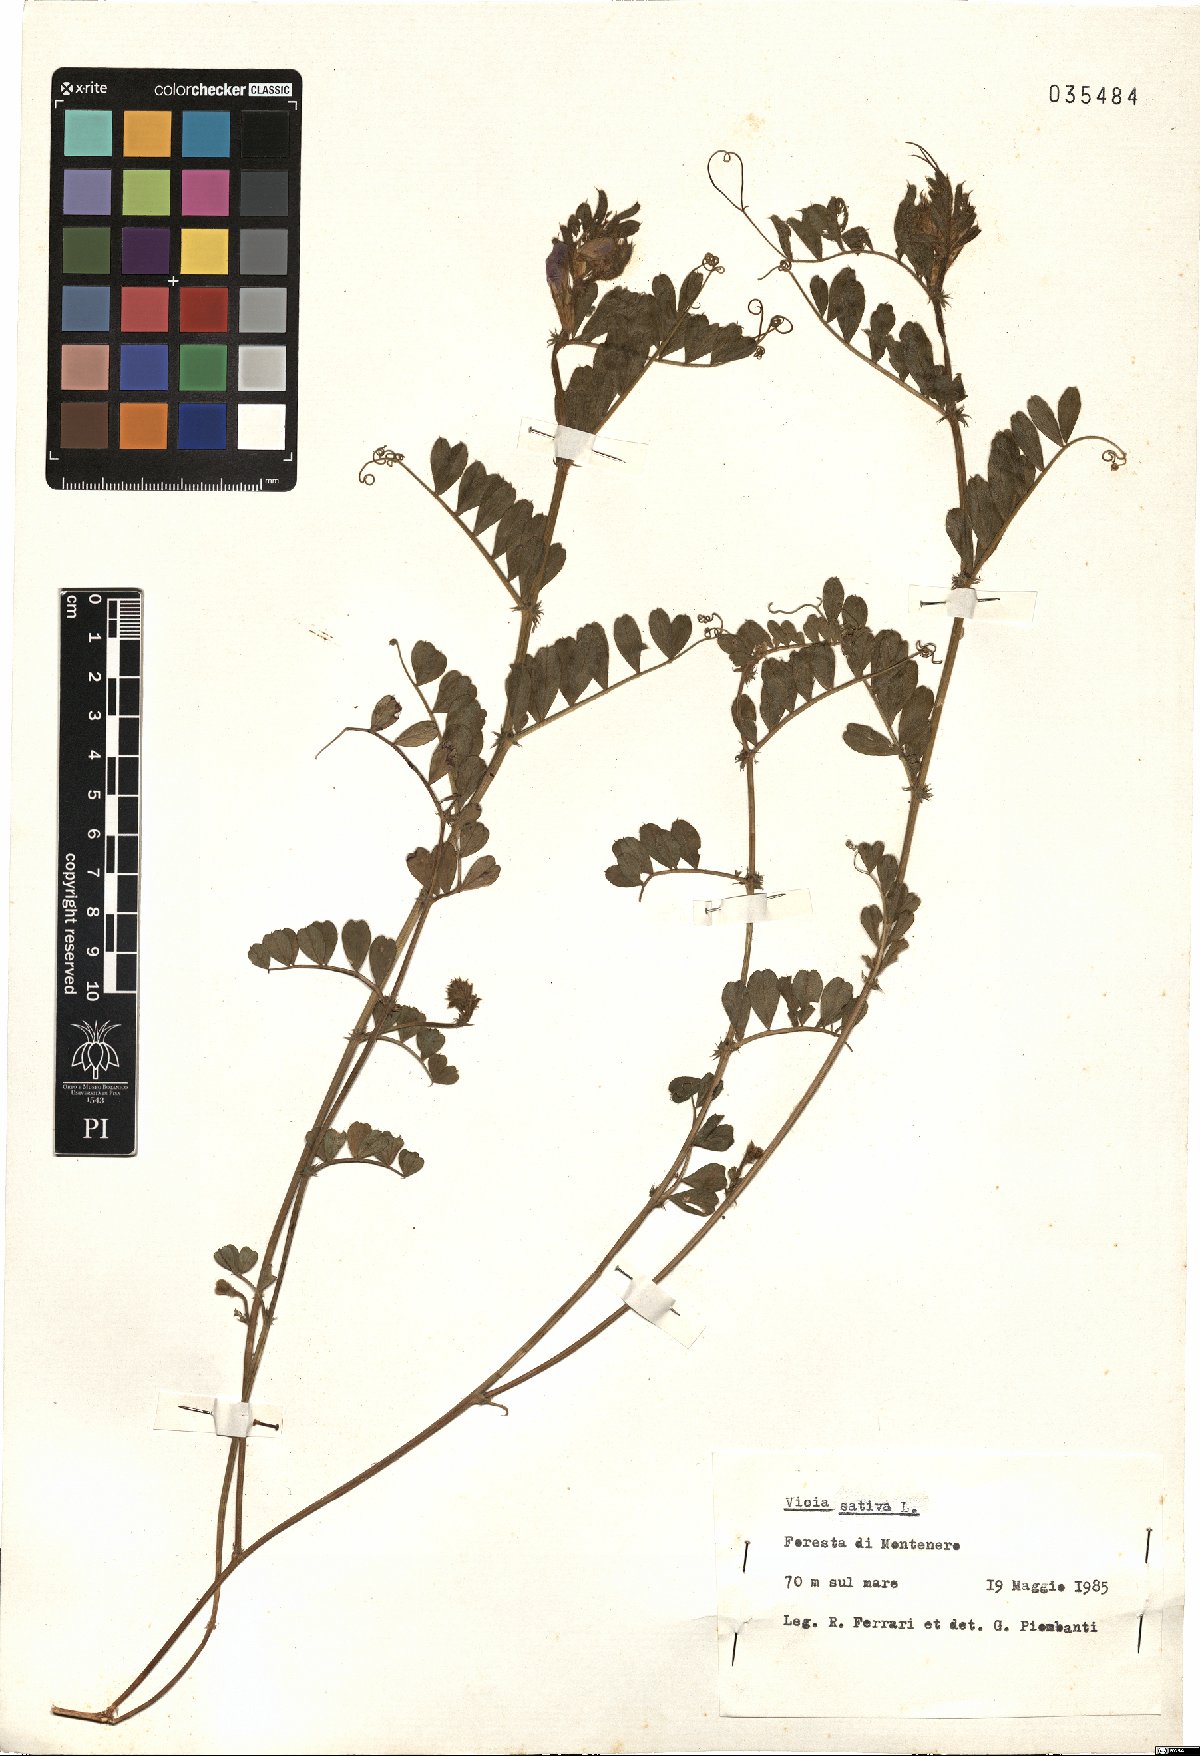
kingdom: Plantae
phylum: Tracheophyta
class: Magnoliopsida
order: Fabales
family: Fabaceae
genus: Vicia
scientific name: Vicia sativa
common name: Garden vetch
